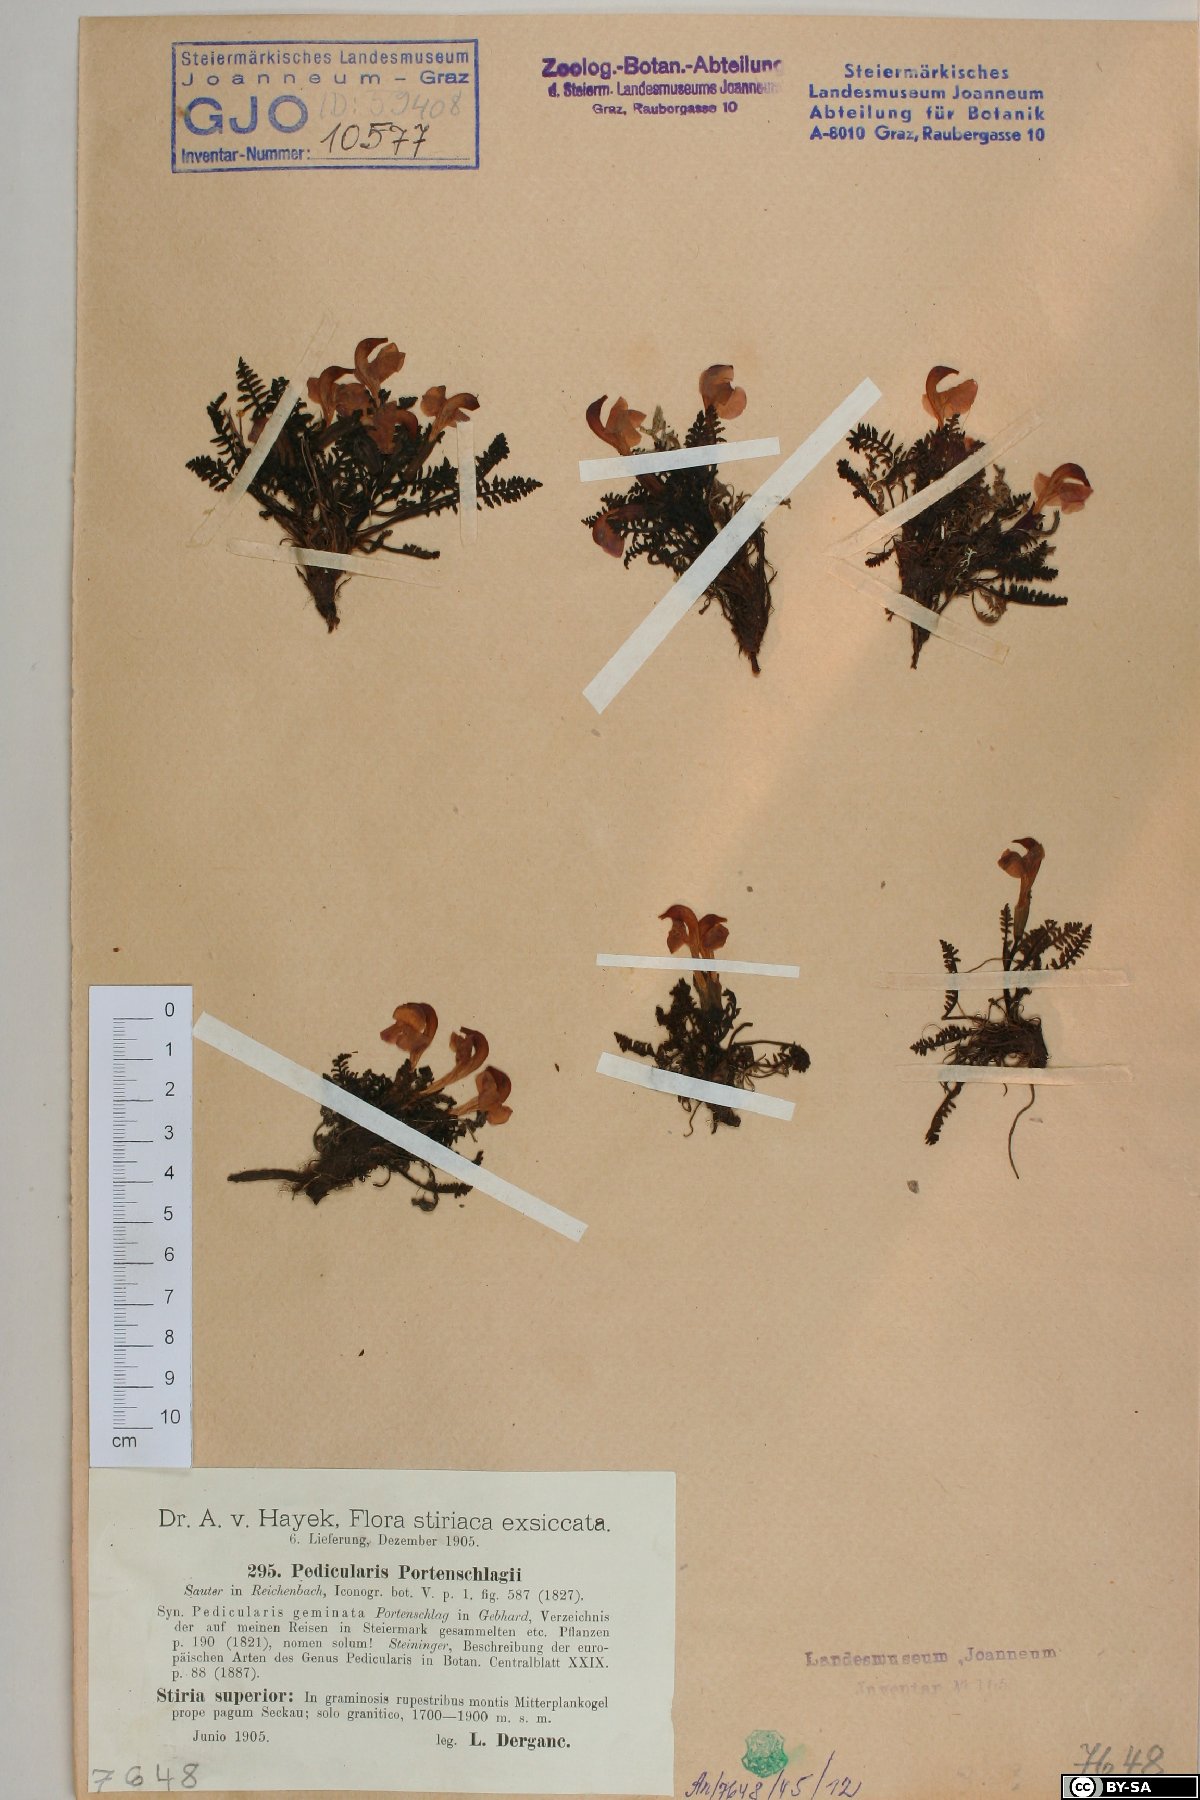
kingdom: Plantae
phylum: Tracheophyta
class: Magnoliopsida
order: Lamiales
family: Orobanchaceae
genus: Pedicularis
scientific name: Pedicularis portenschlagii
